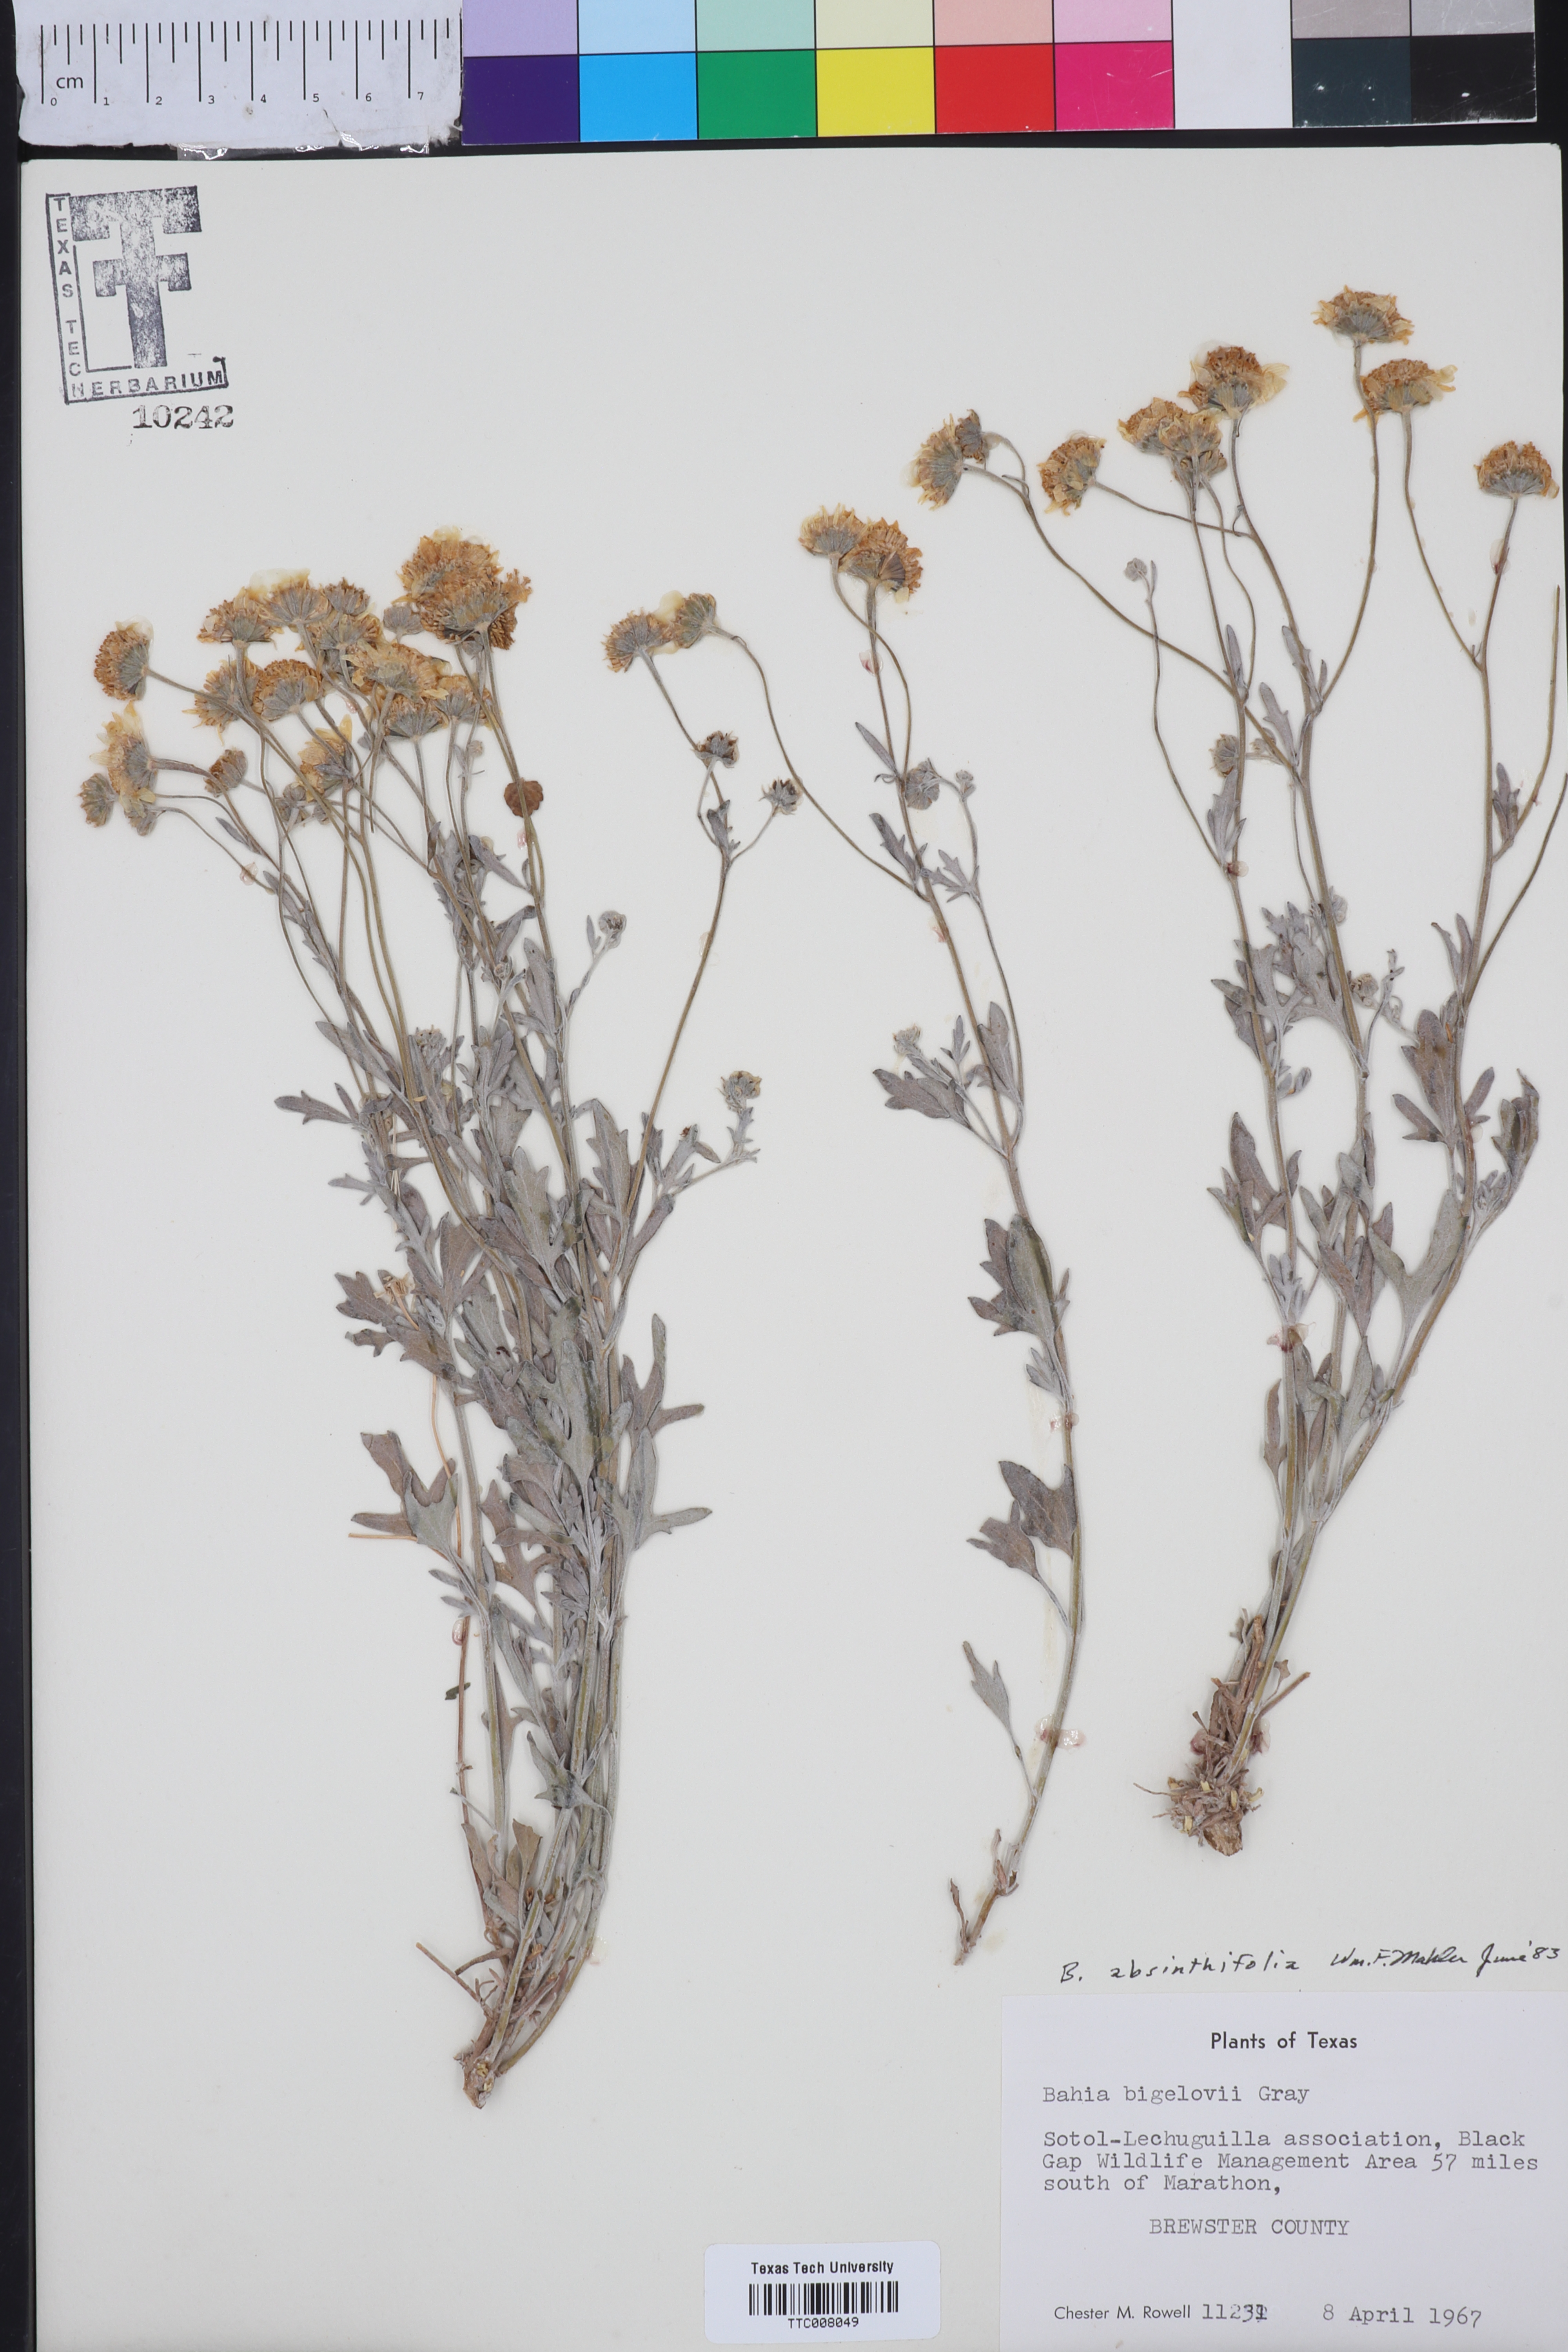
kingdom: Plantae
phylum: Tracheophyta
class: Magnoliopsida
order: Asterales
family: Asteraceae
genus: Picradeniopsis
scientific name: Picradeniopsis absinthifolia
